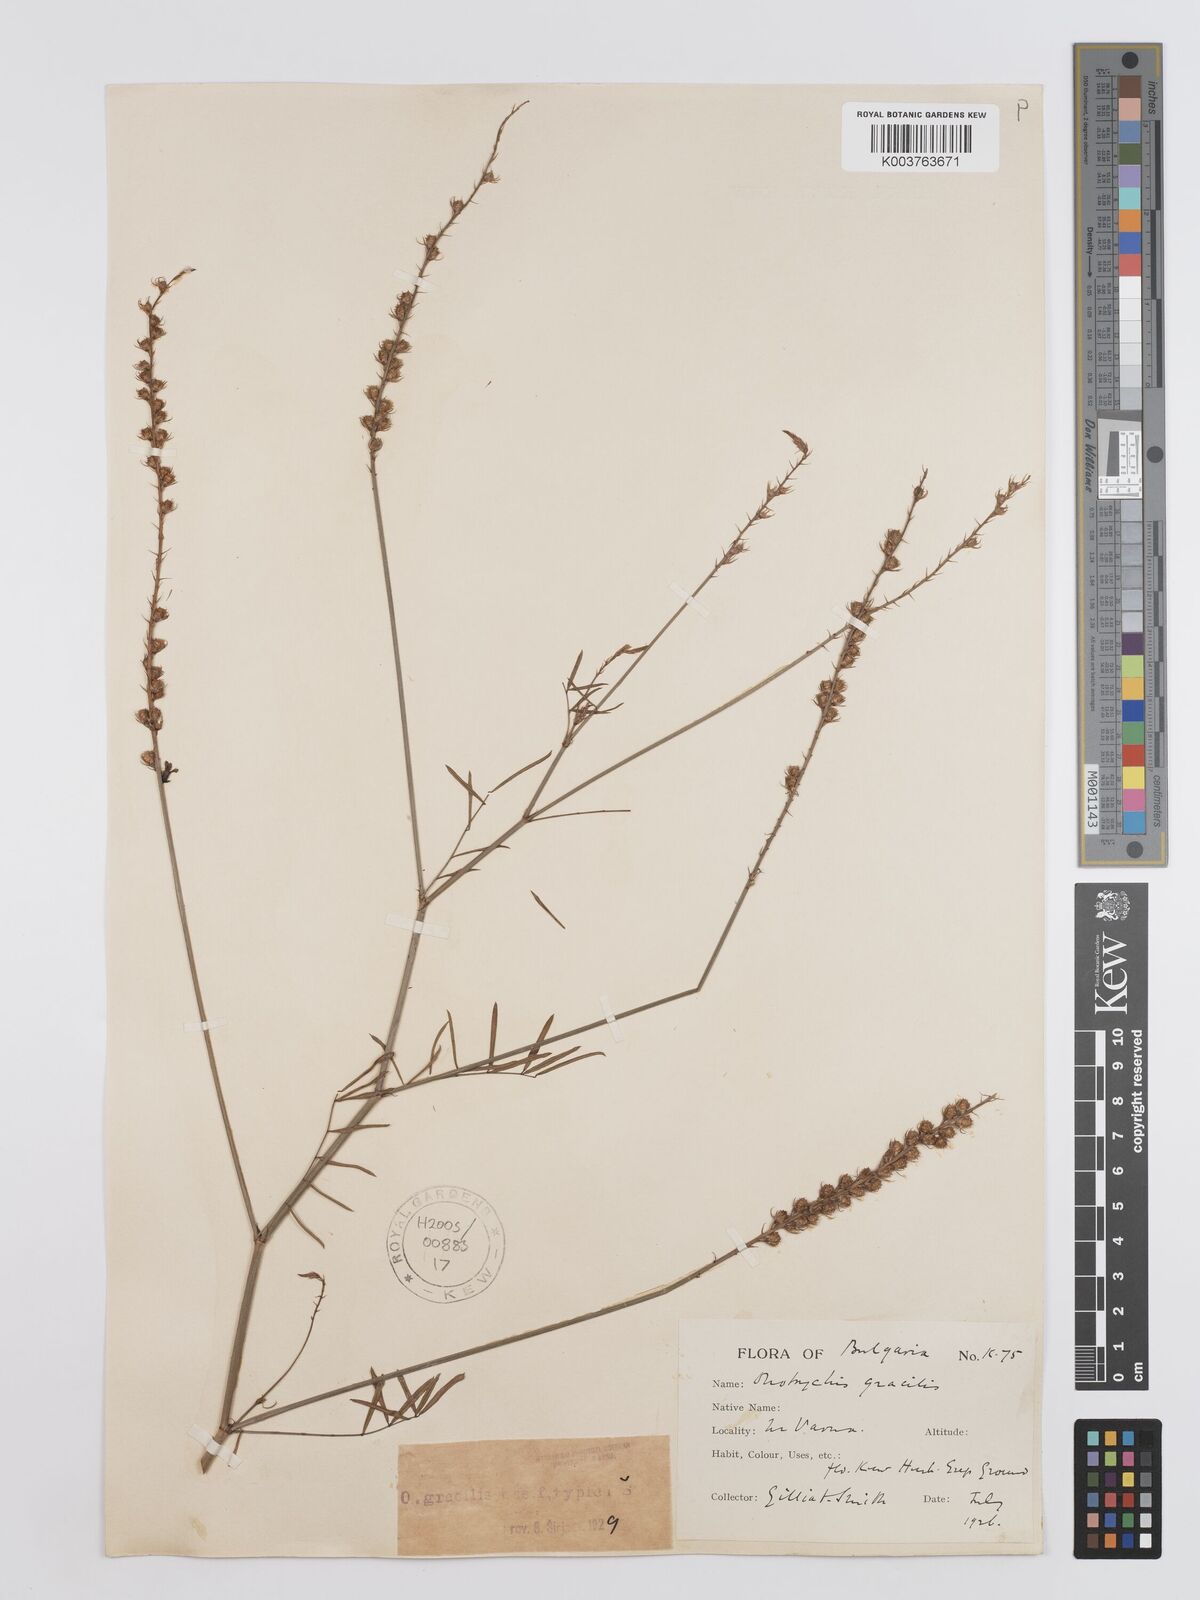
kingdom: Plantae
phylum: Tracheophyta
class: Magnoliopsida
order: Fabales
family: Fabaceae
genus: Onobrychis
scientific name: Onobrychis gracilis
